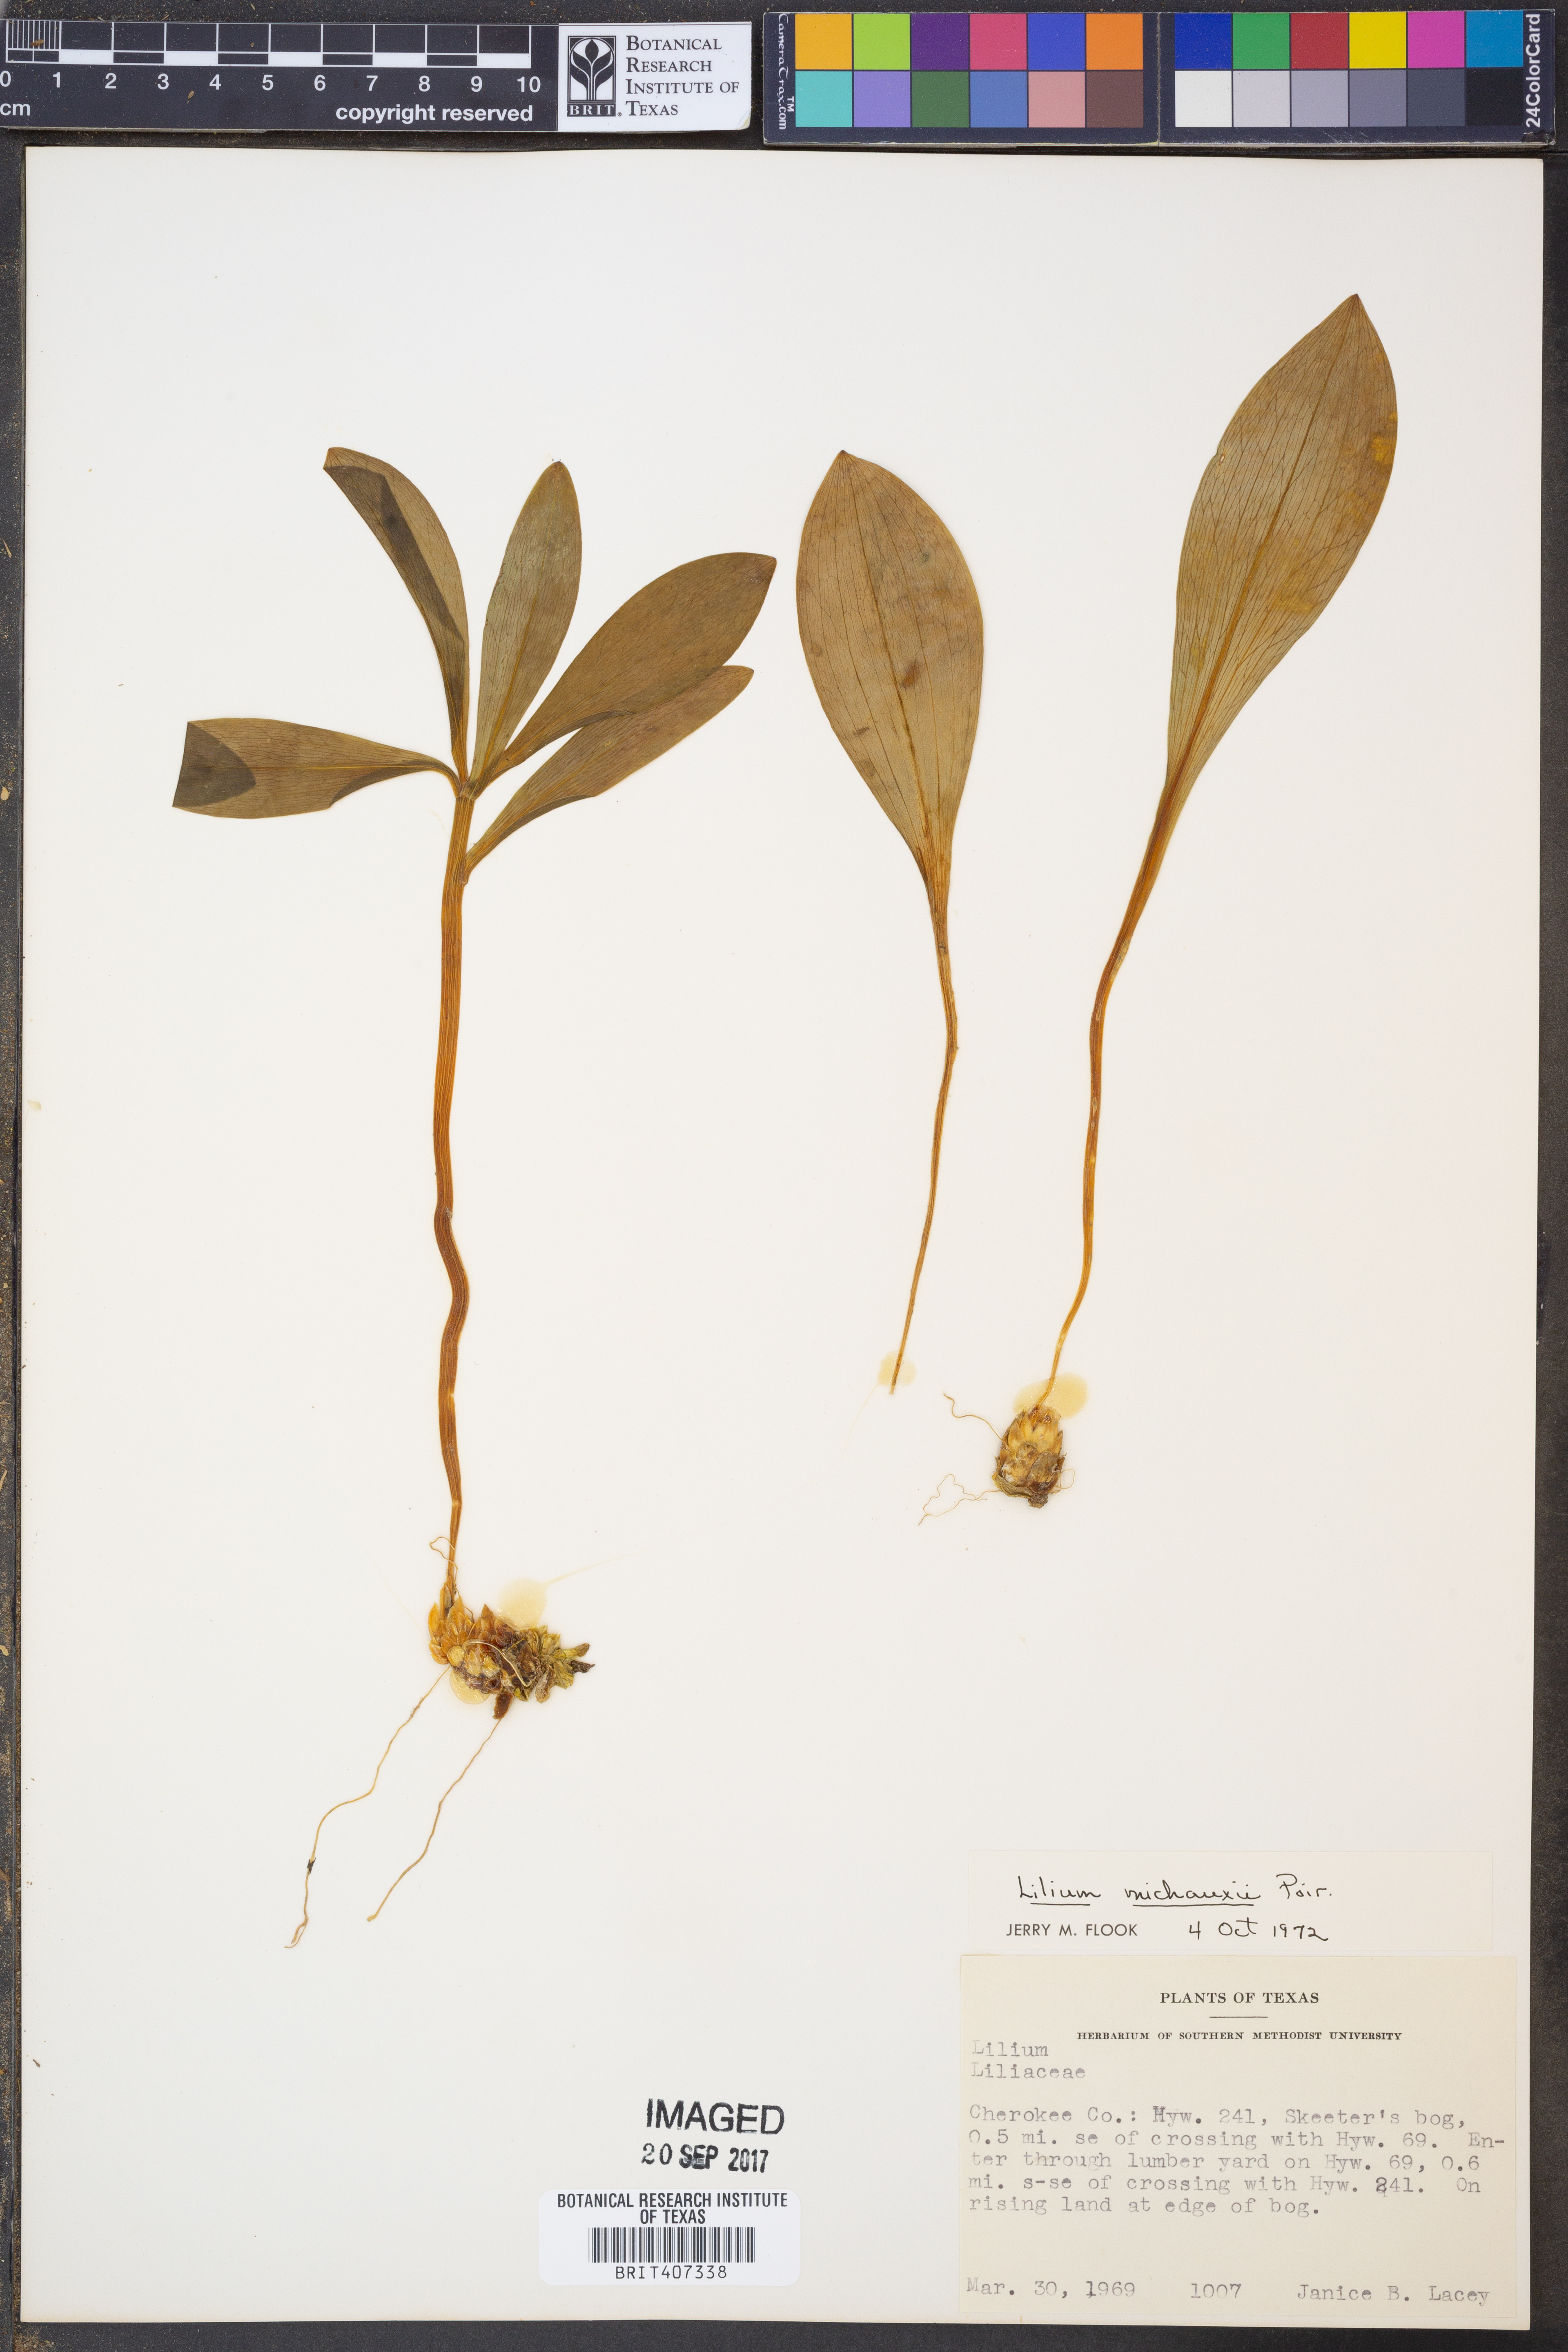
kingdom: Plantae
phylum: Tracheophyta
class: Liliopsida
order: Liliales
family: Liliaceae
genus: Lilium
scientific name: Lilium michauxii
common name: Carolina lily
